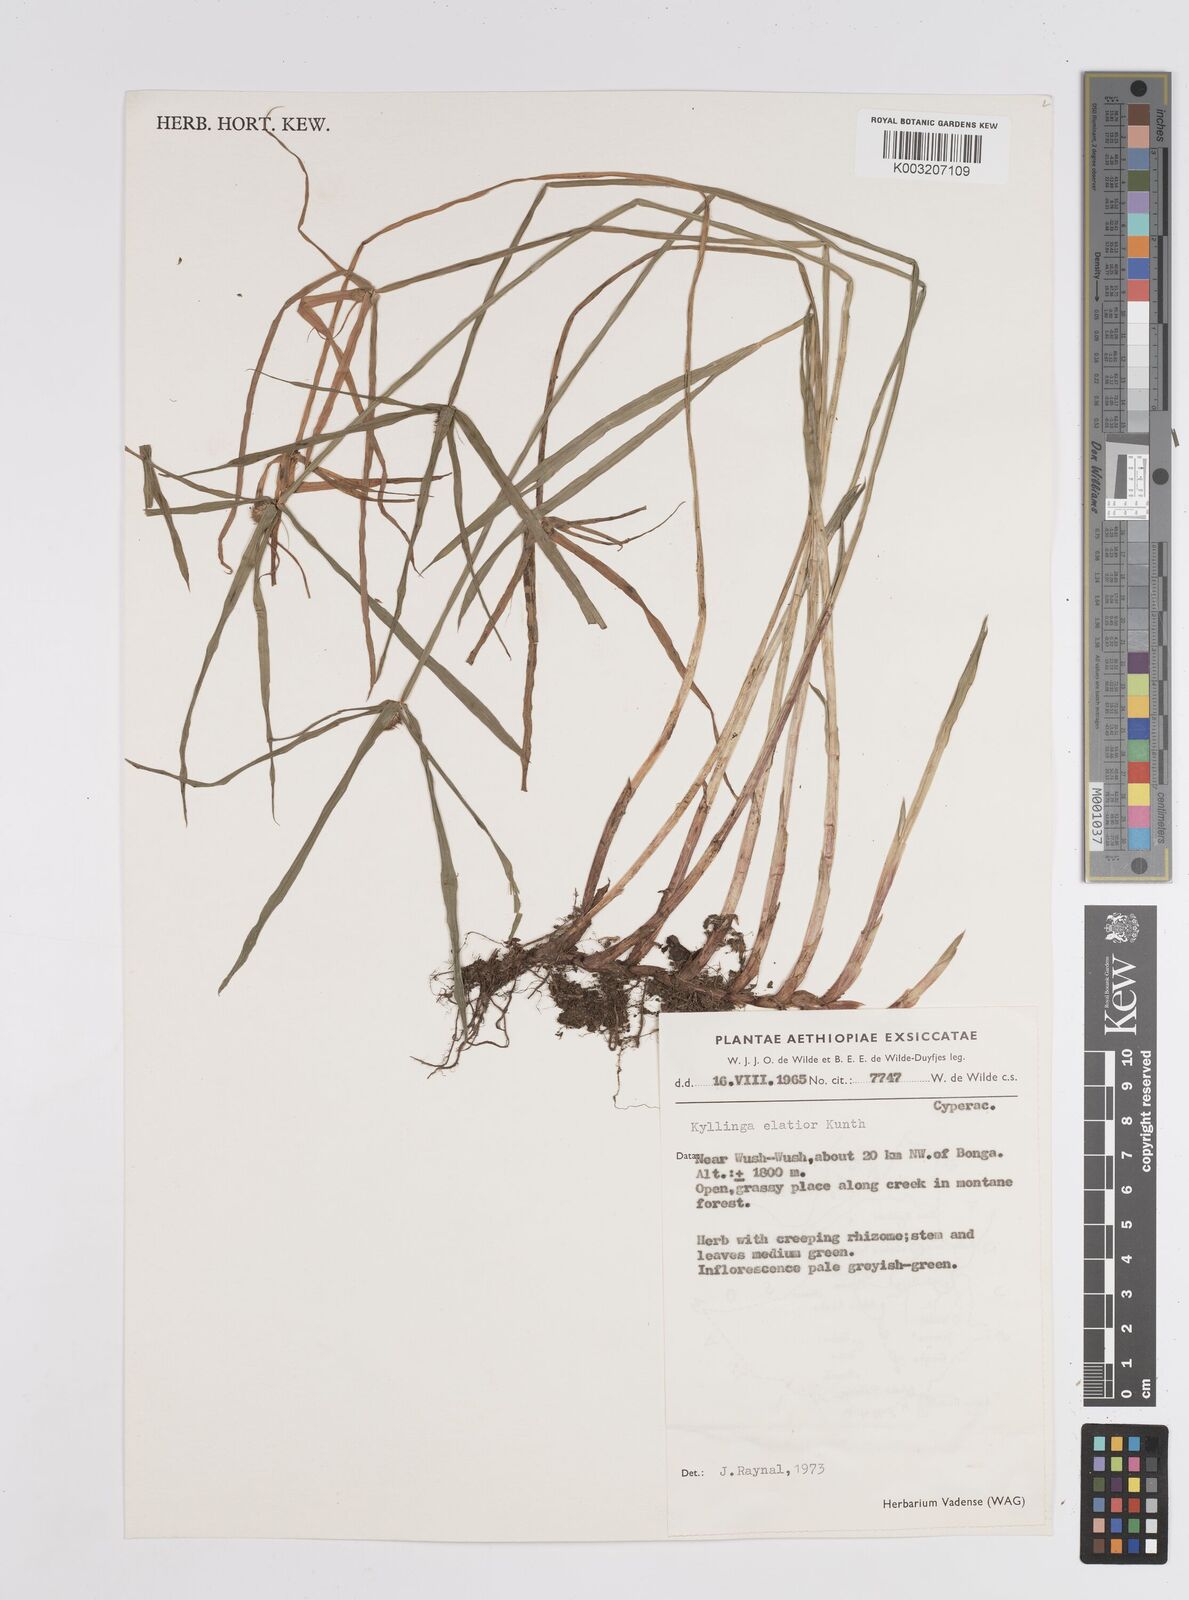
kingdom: Plantae
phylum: Tracheophyta
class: Liliopsida
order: Poales
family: Cyperaceae
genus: Cyperus
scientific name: Cyperus
